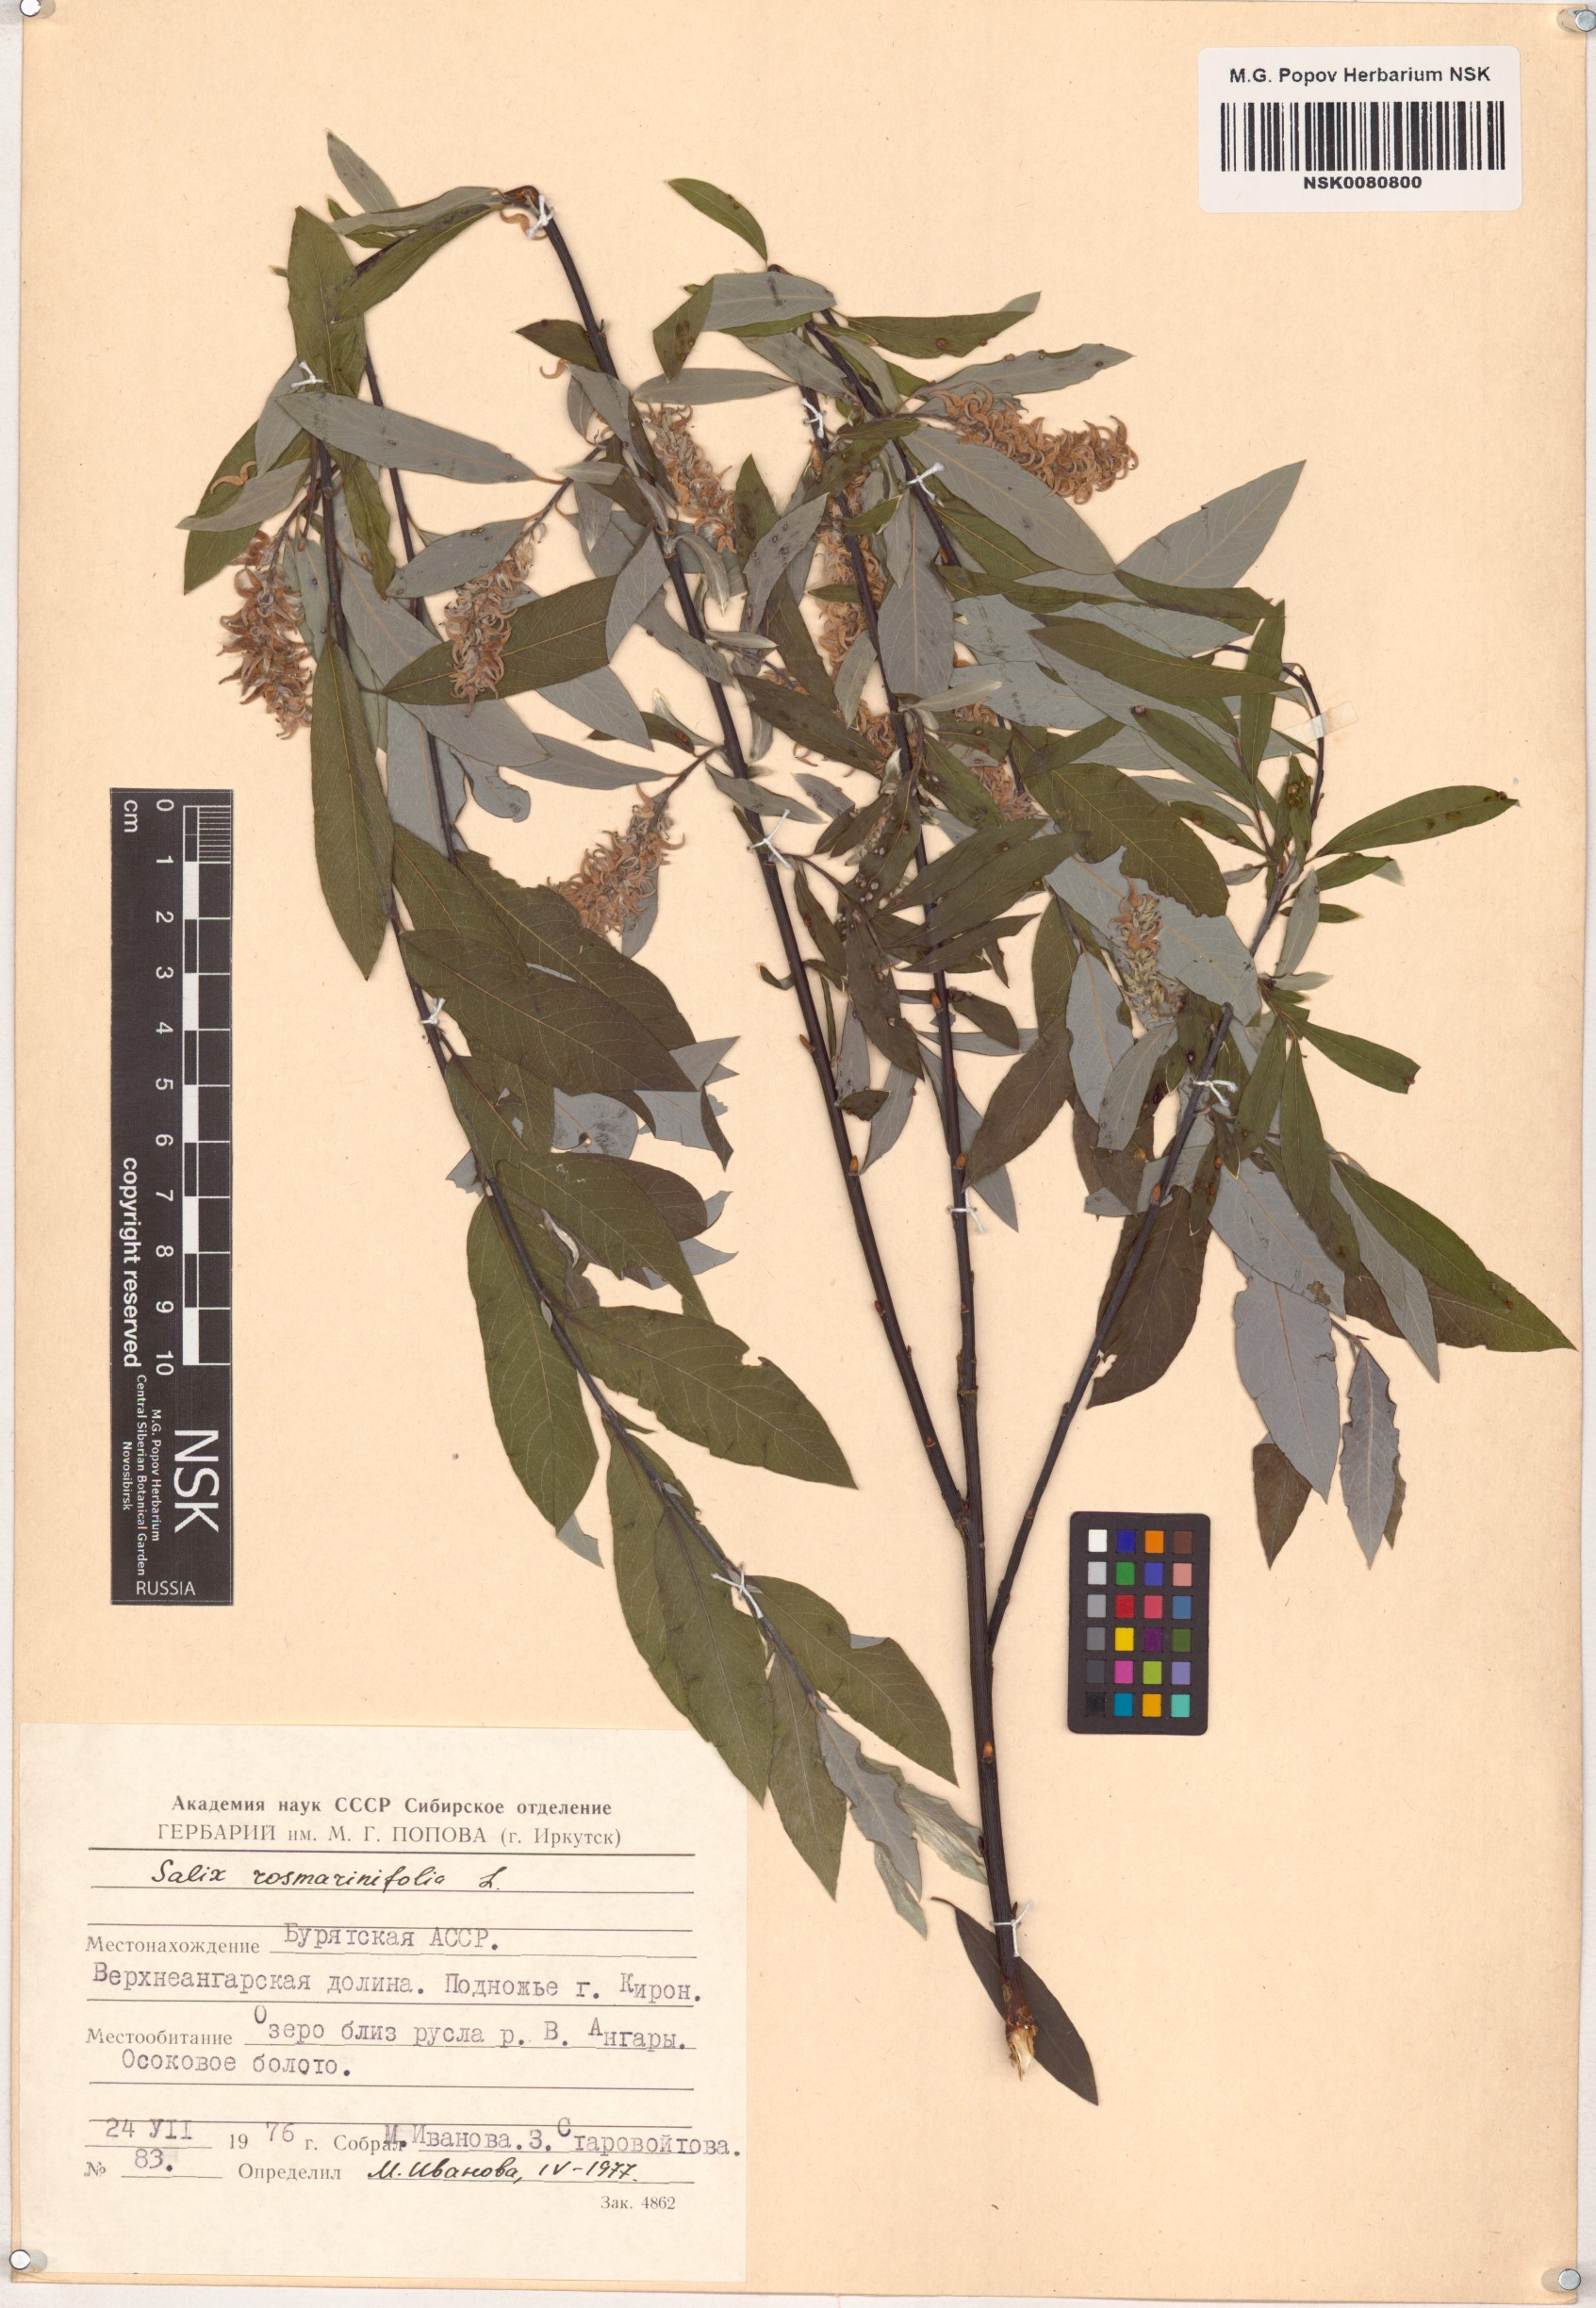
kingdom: Plantae
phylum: Tracheophyta
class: Magnoliopsida
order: Malpighiales
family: Salicaceae
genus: Salix
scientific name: Salix rosmarinifolia
